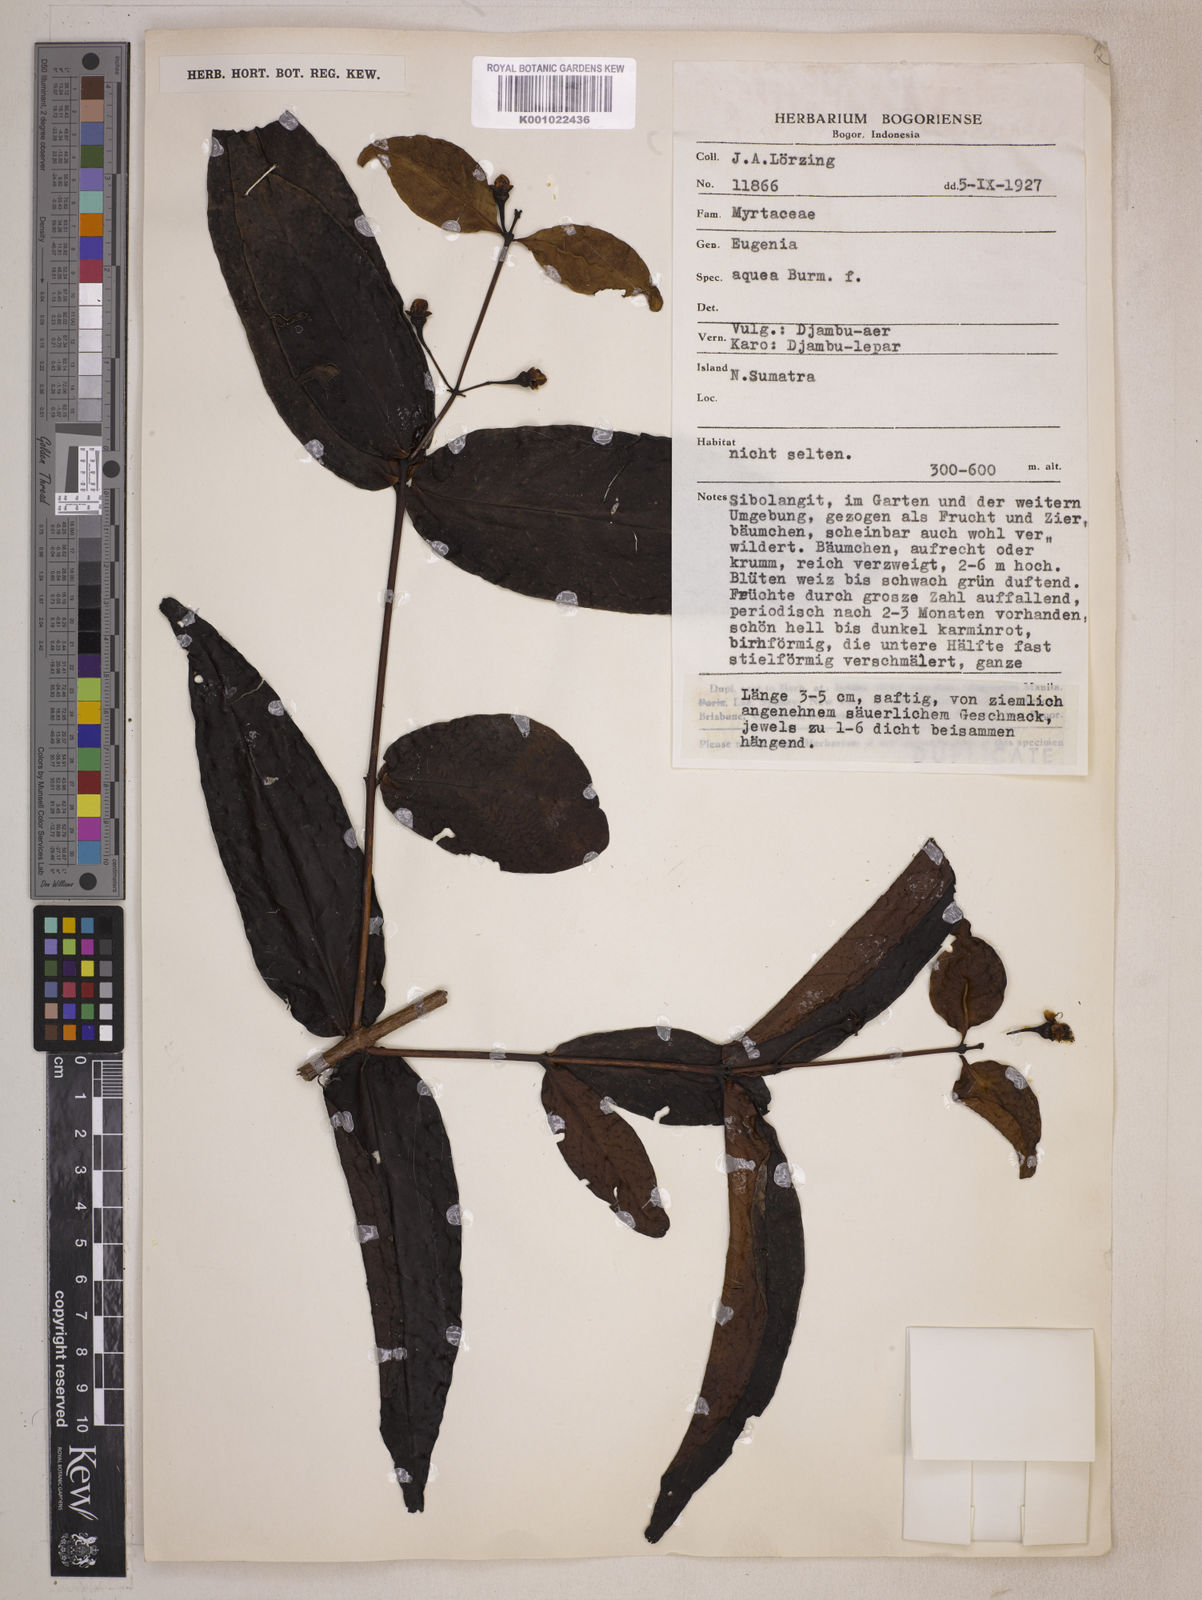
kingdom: Plantae
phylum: Tracheophyta
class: Magnoliopsida
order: Myrtales
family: Myrtaceae
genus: Syzygium
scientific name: Syzygium aqueum
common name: Water-apple
